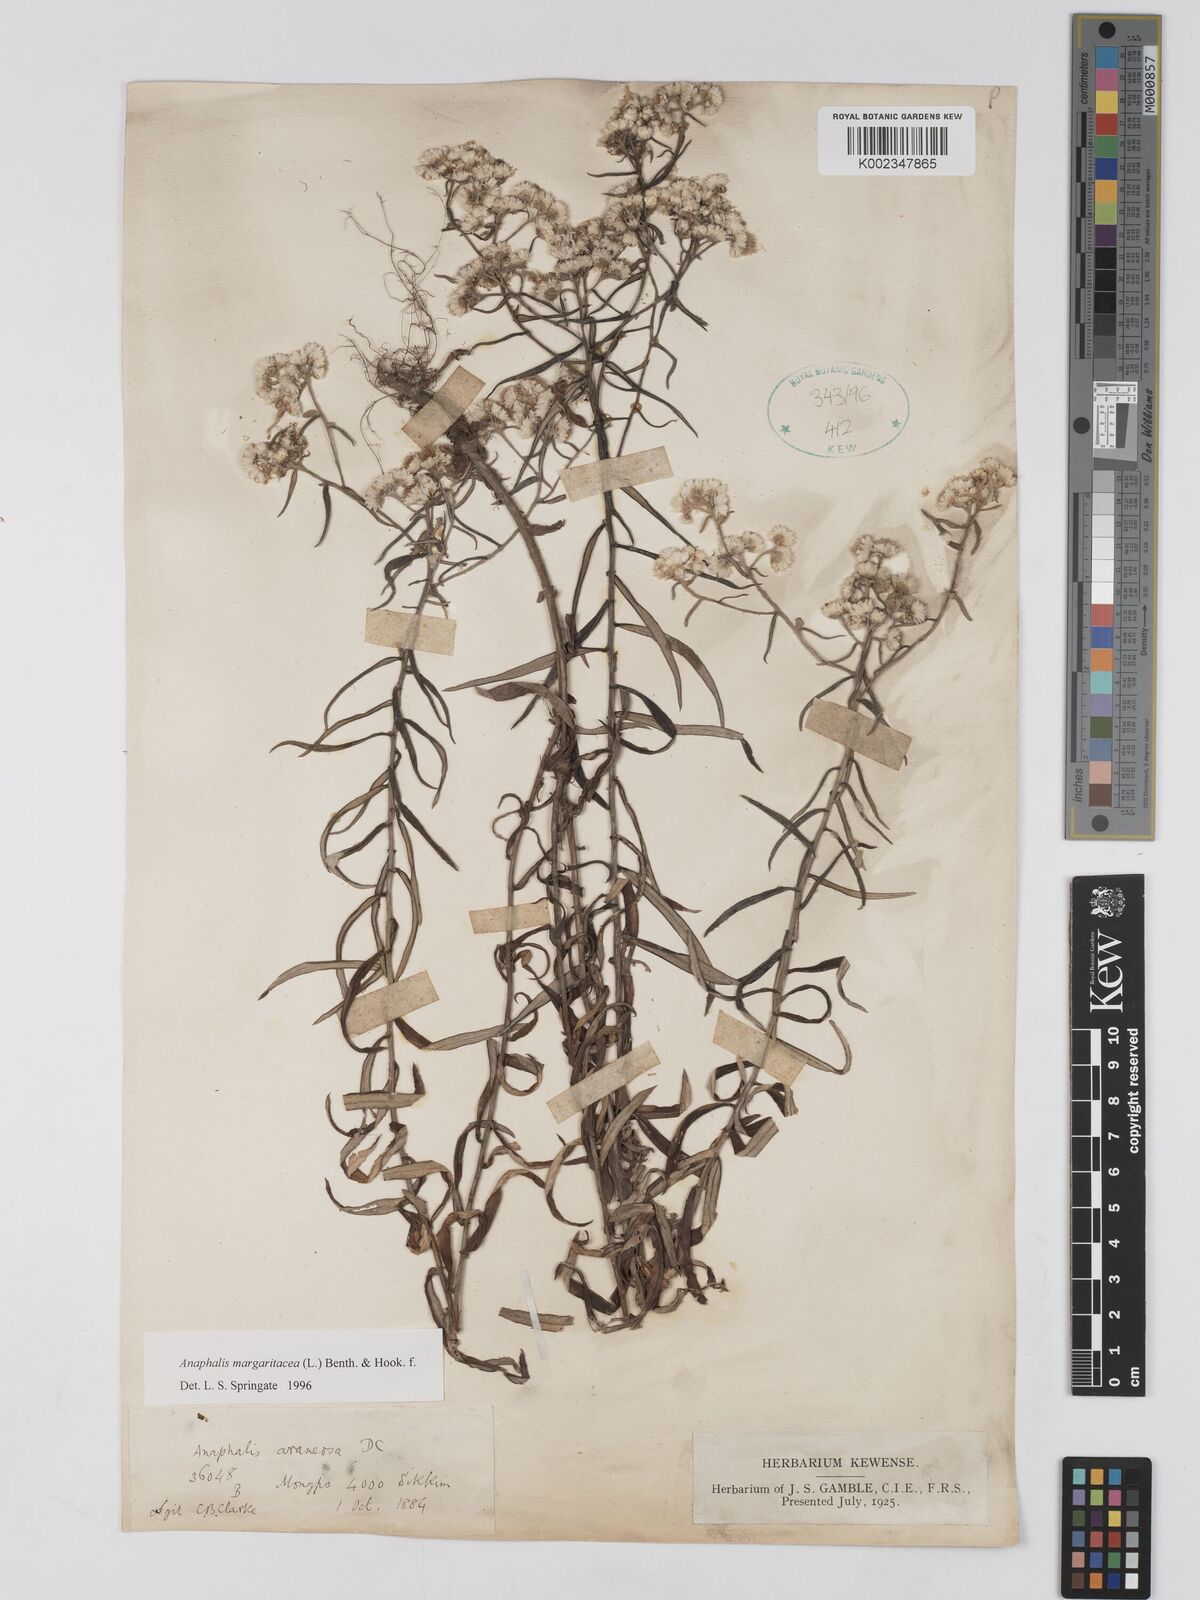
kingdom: Plantae
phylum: Tracheophyta
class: Magnoliopsida
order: Asterales
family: Asteraceae
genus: Anaphalis
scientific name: Anaphalis margaritacea
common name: Pearly everlasting
